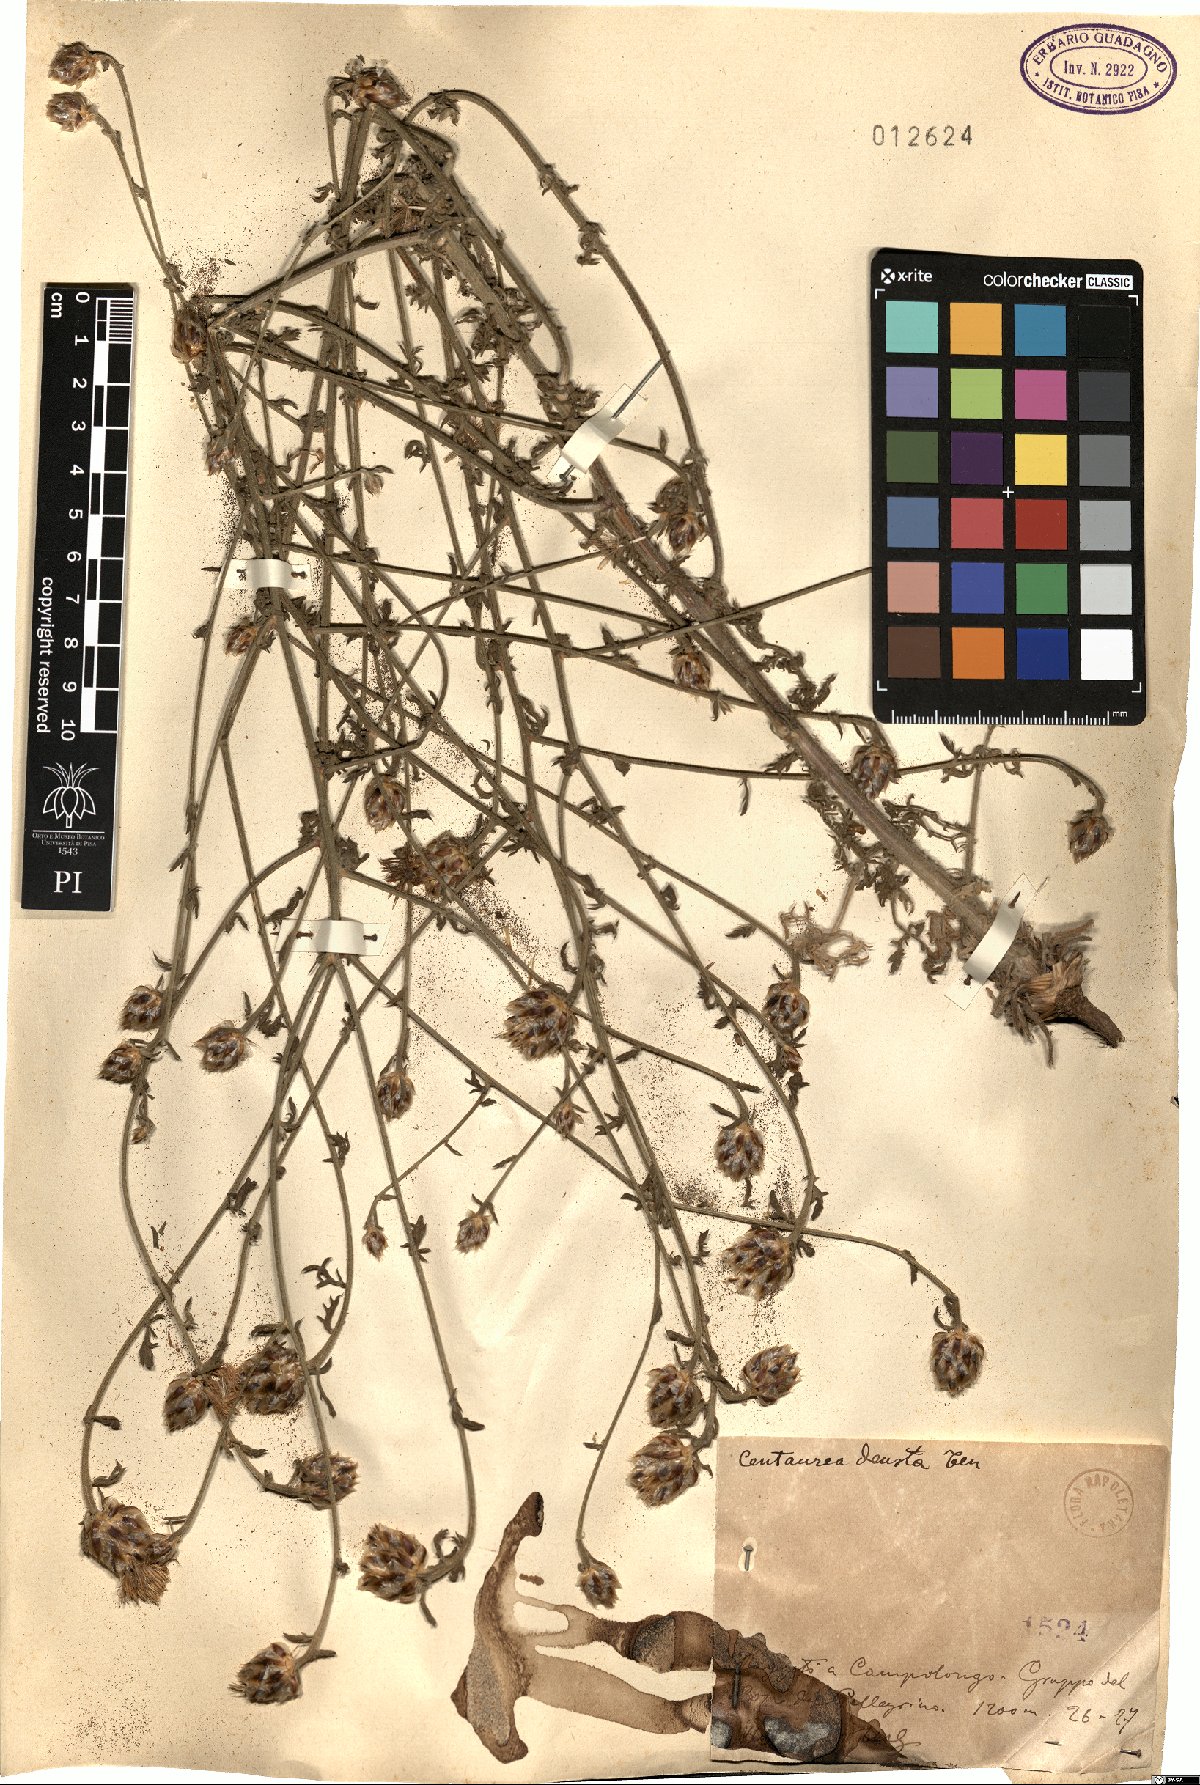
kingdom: Plantae
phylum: Tracheophyta
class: Magnoliopsida
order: Asterales
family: Asteraceae
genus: Centaurea
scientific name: Centaurea deusta
